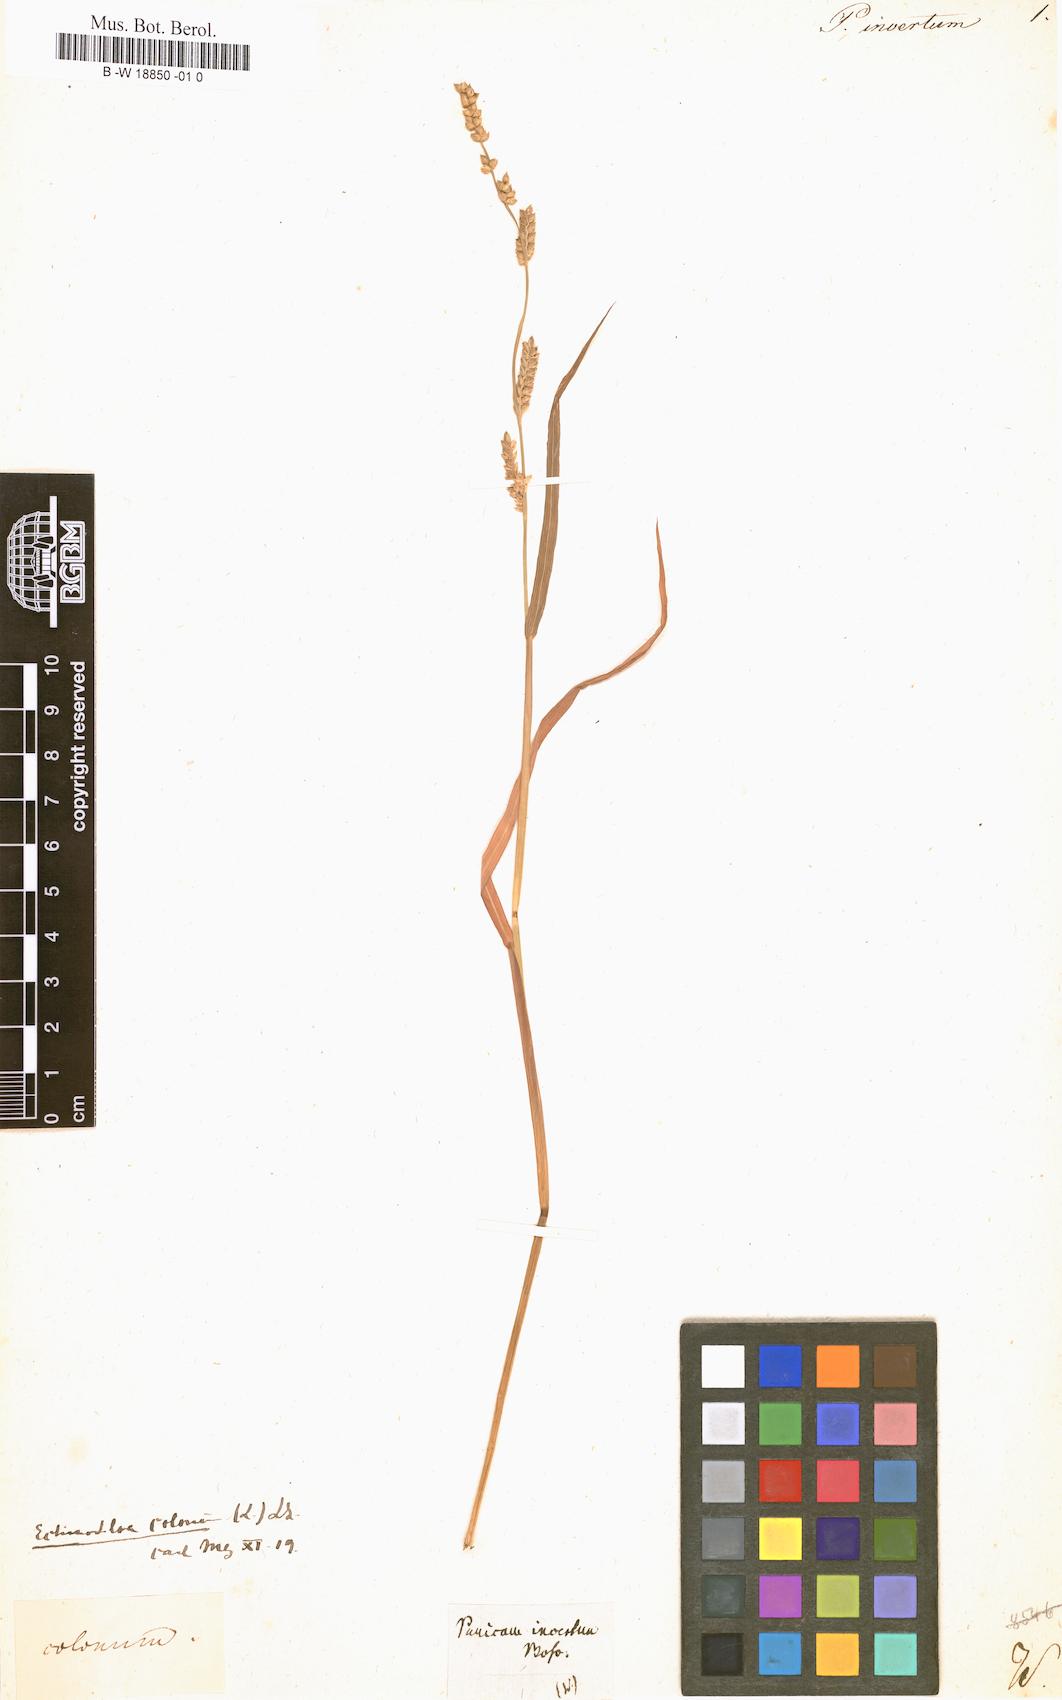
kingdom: Plantae
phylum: Tracheophyta
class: Liliopsida
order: Poales
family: Poaceae
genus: Echinochloa
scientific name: Echinochloa colonum
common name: Jungle rice
